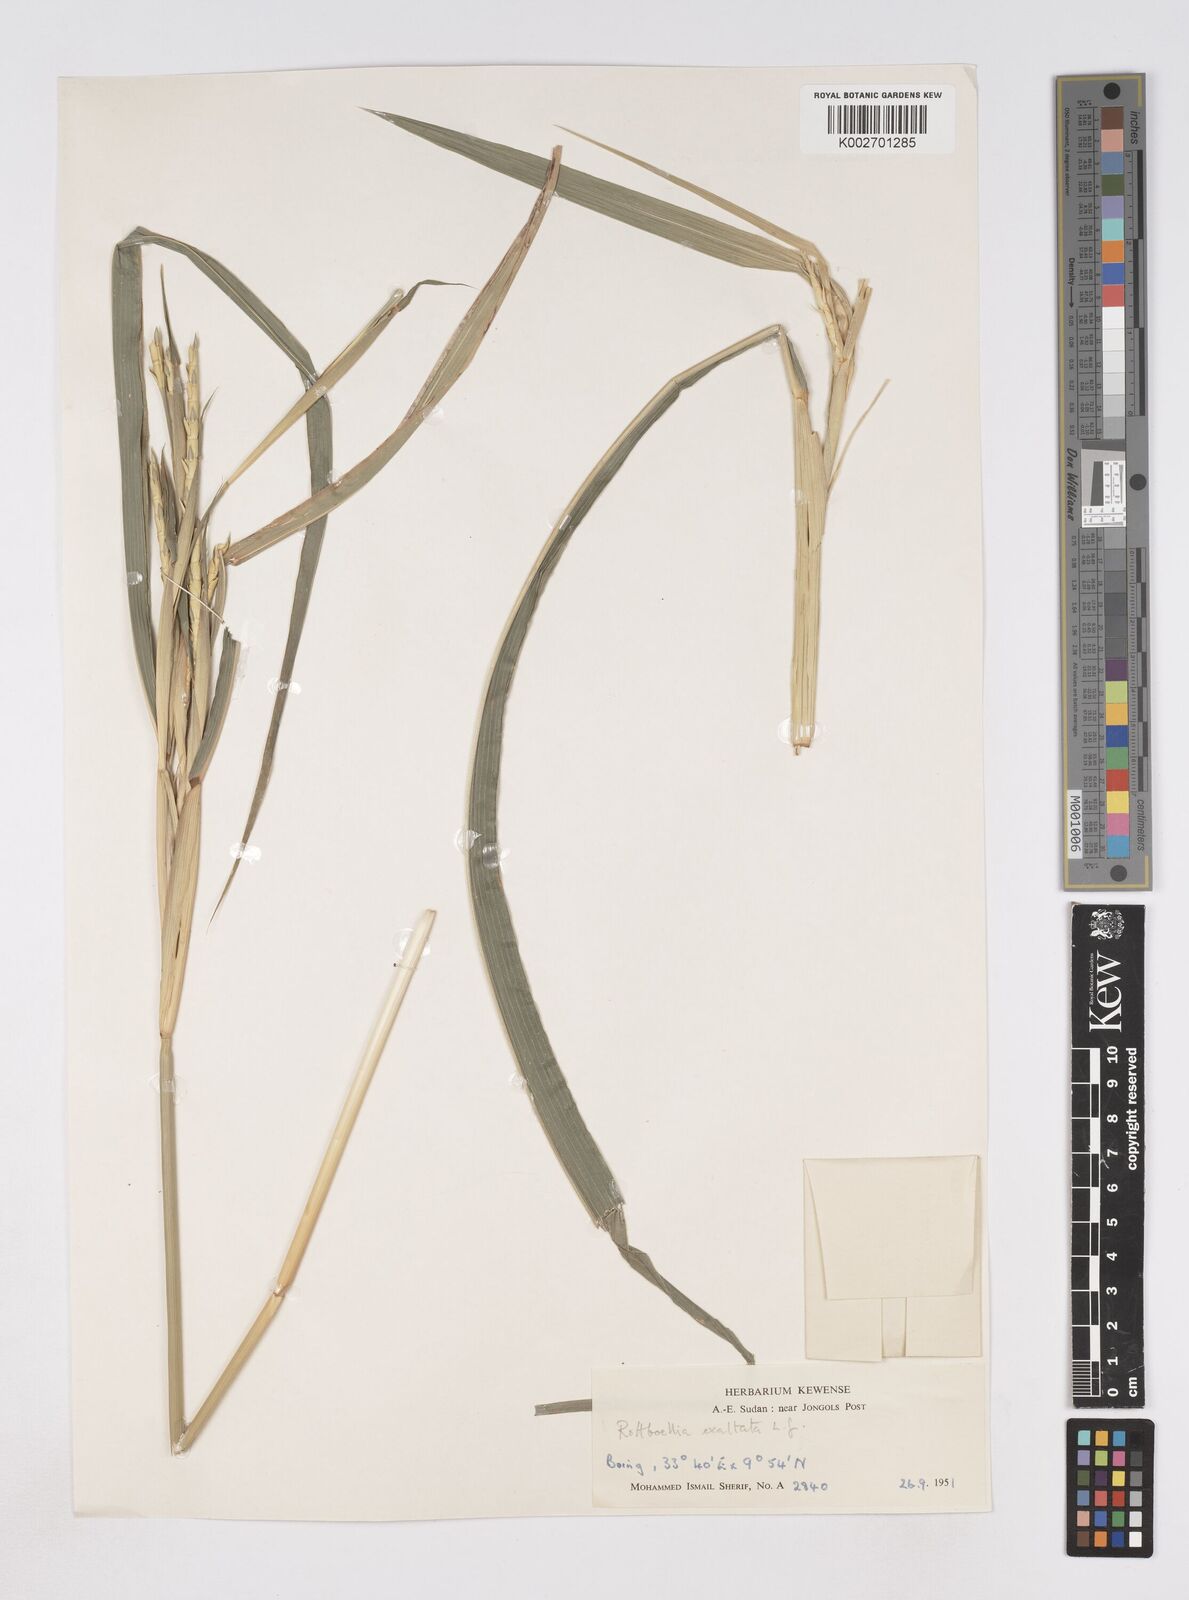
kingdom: Plantae
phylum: Tracheophyta
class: Liliopsida
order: Poales
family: Poaceae
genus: Rottboellia
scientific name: Rottboellia cochinchinensis
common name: Itchgrass
